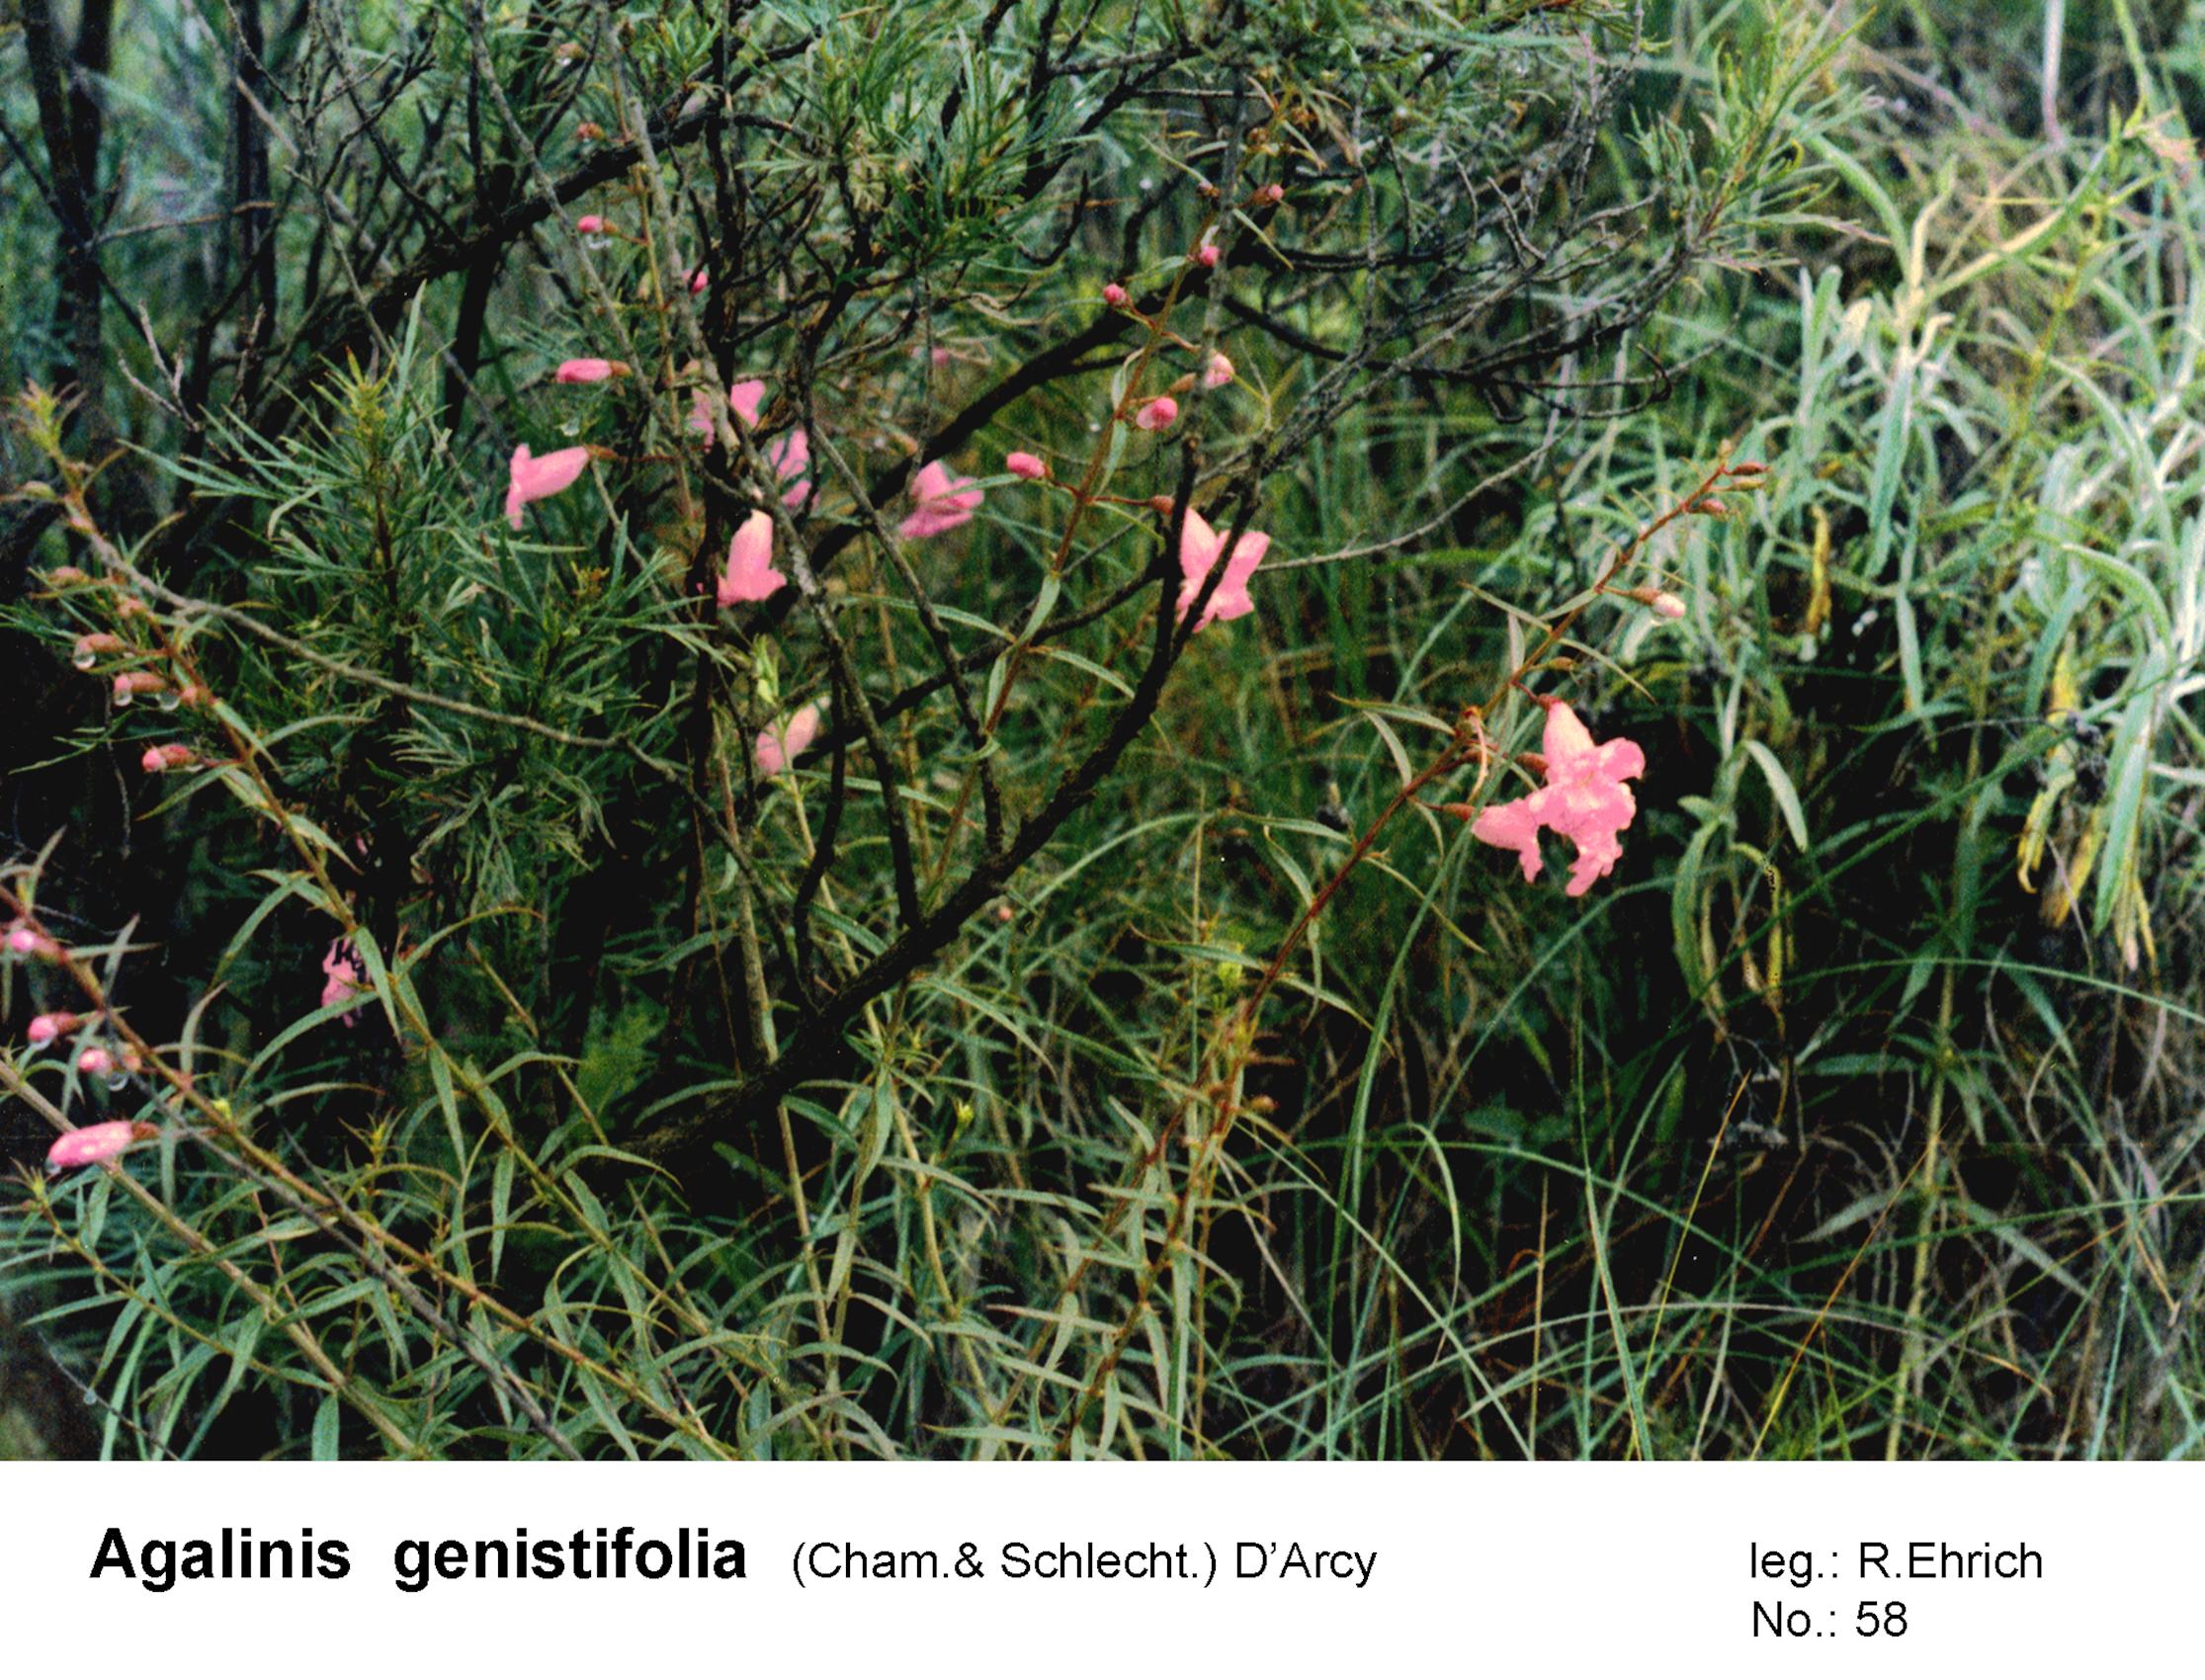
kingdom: Plantae
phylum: Tracheophyta
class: Magnoliopsida
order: Lamiales
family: Orobanchaceae
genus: Agalinis
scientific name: Agalinis tarijensis
